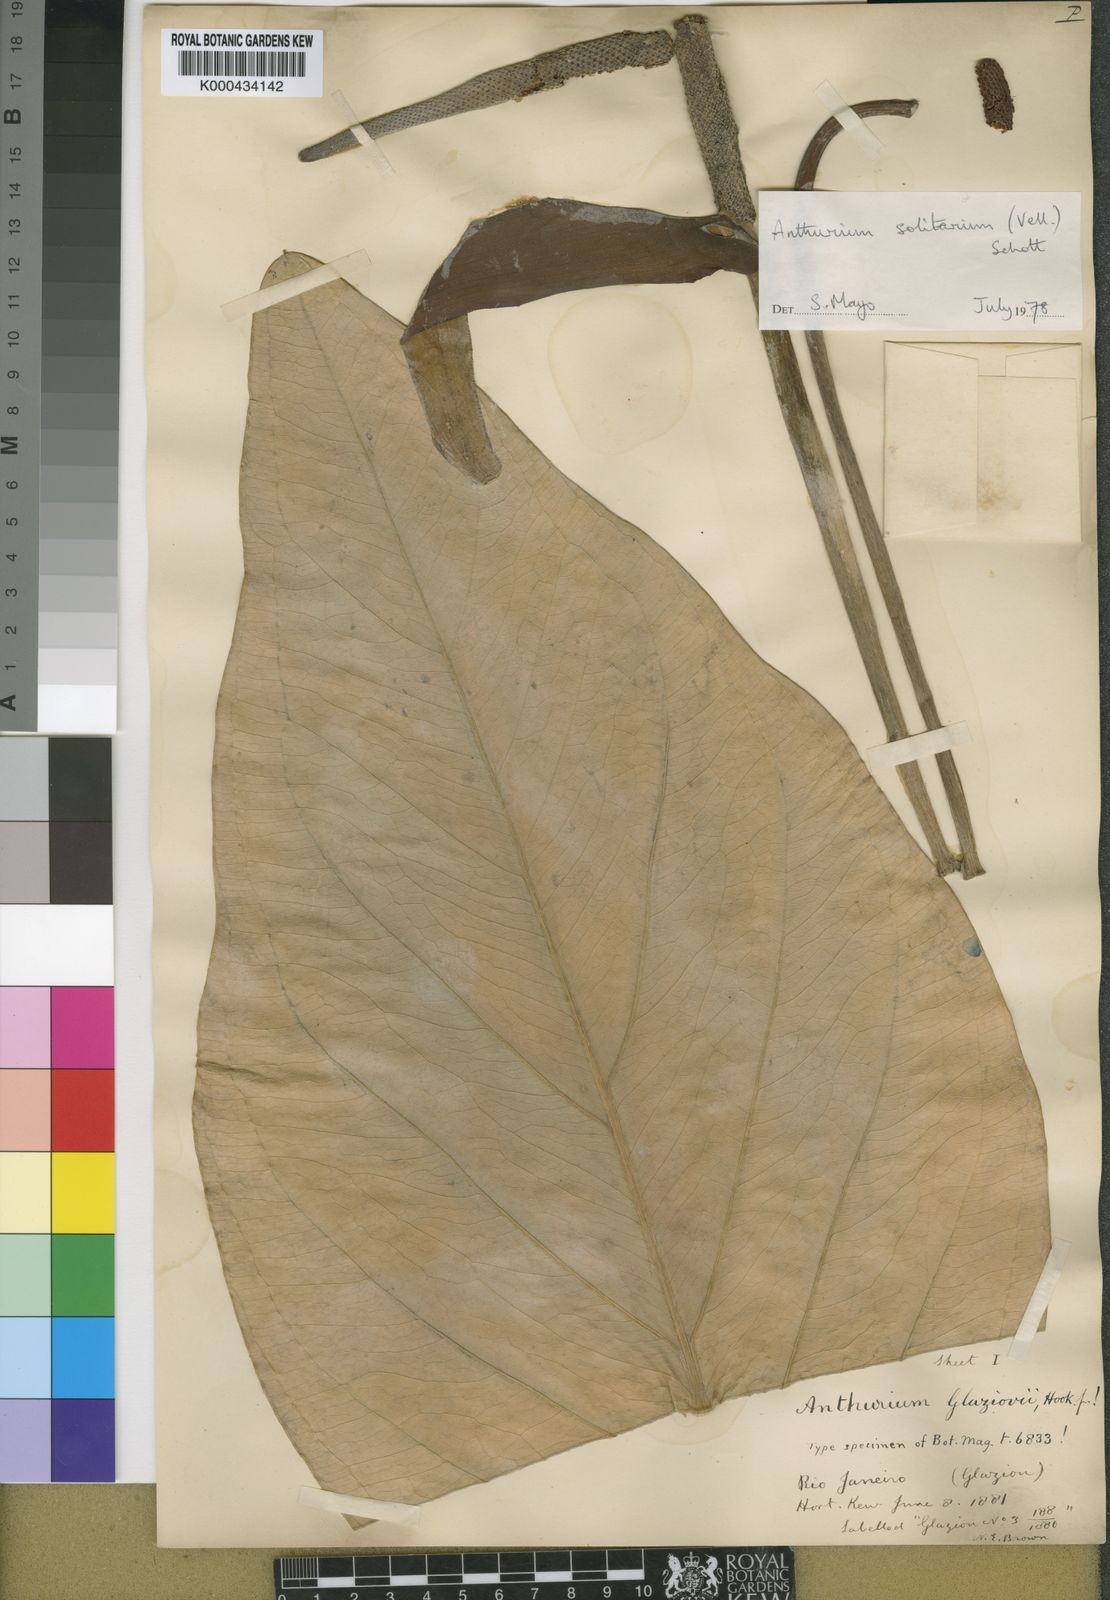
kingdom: Plantae
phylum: Tracheophyta
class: Liliopsida
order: Alismatales
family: Araceae
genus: Anthurium
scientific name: Anthurium solitarium
